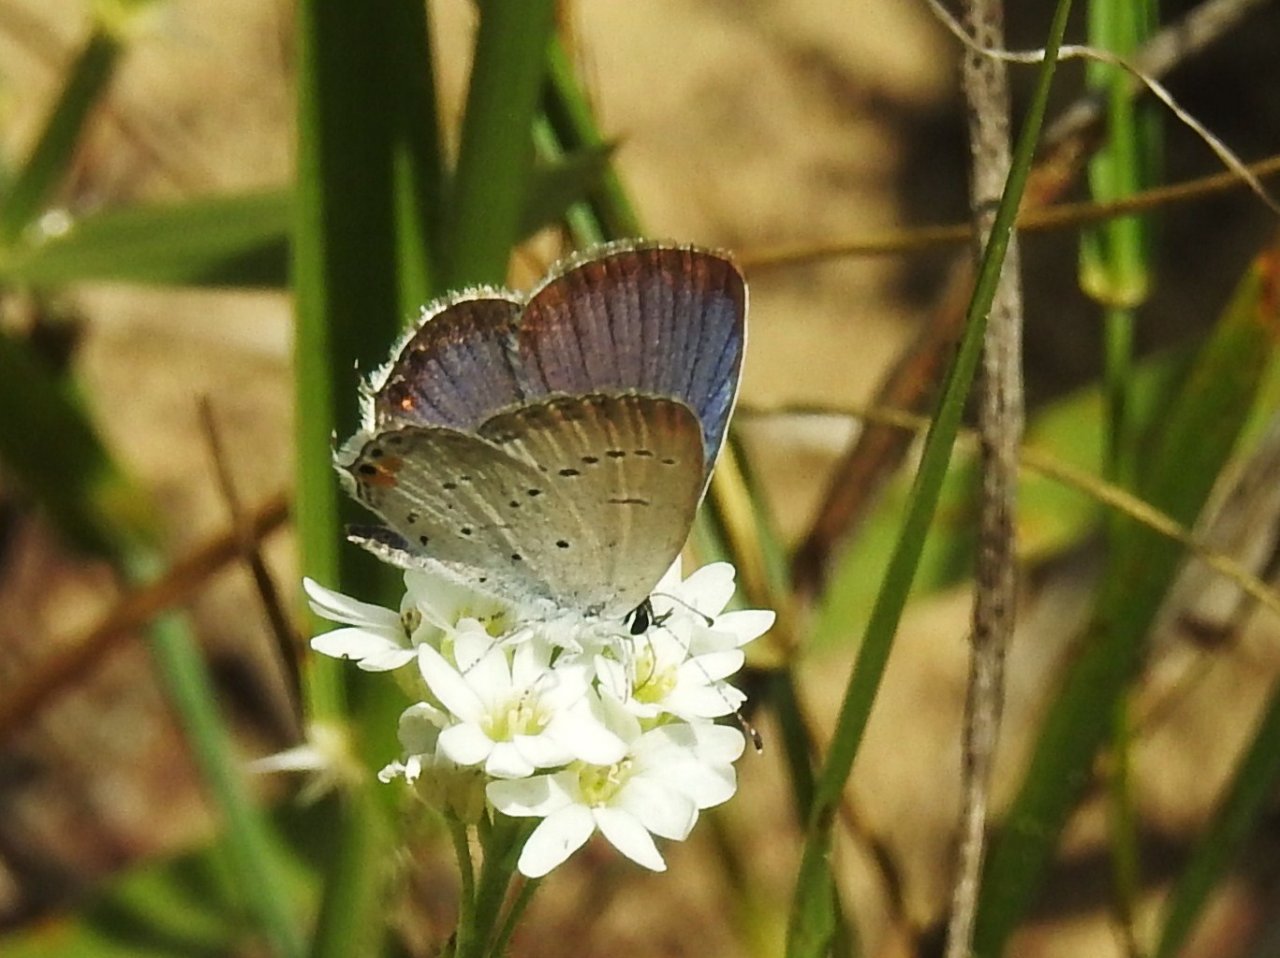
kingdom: Animalia
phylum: Arthropoda
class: Insecta
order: Lepidoptera
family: Lycaenidae
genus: Elkalyce
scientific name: Elkalyce comyntas
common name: Eastern Tailed-Blue
